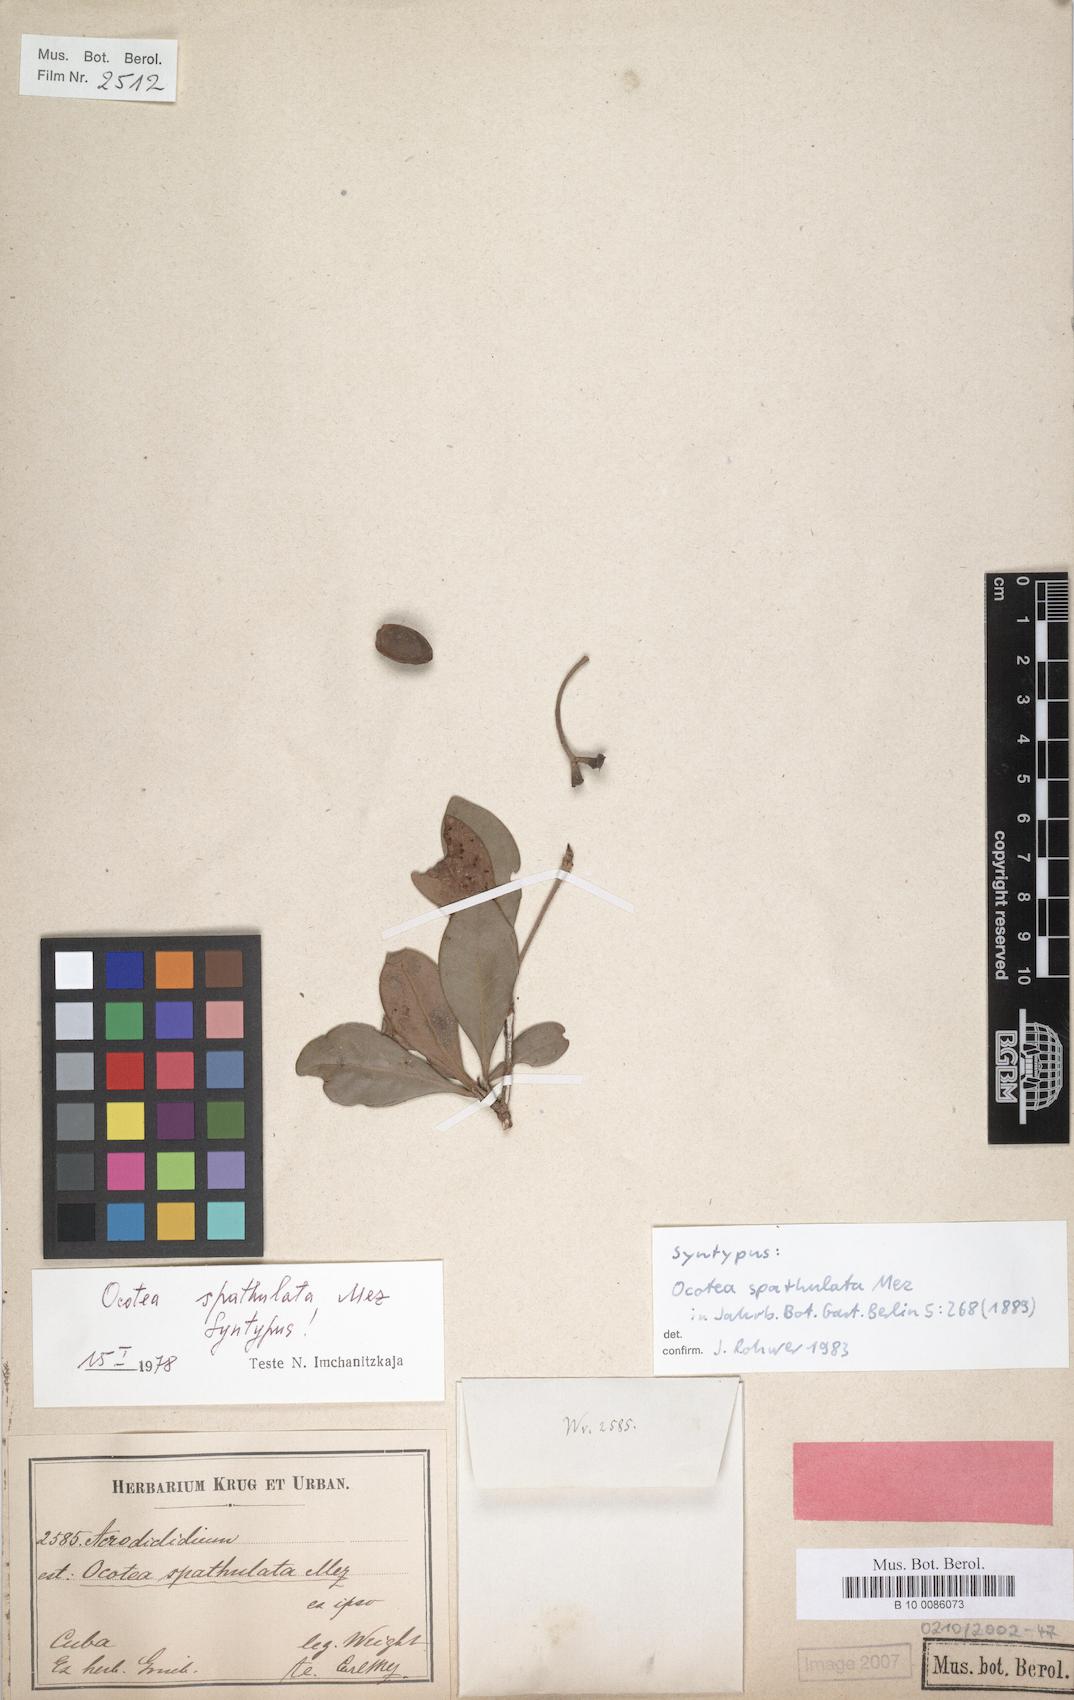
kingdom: Plantae
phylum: Tracheophyta
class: Magnoliopsida
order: Laurales
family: Lauraceae
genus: Ocotea
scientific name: Ocotea spathulata
